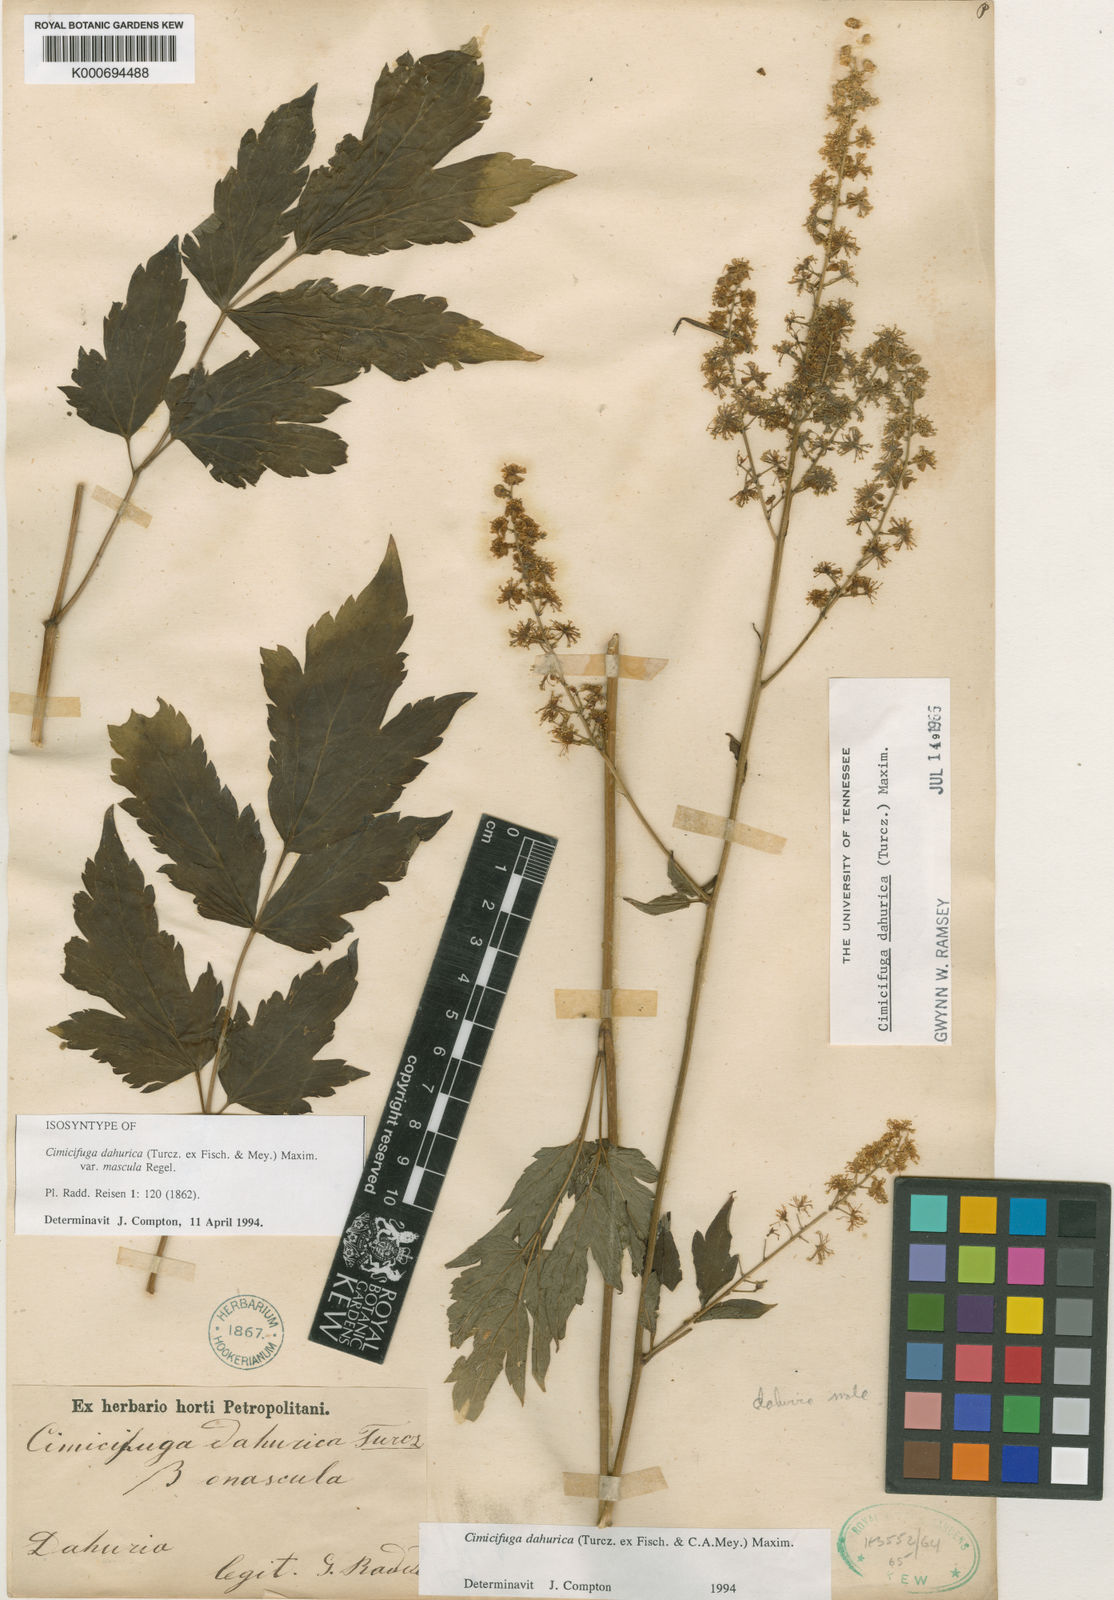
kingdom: Plantae
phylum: Tracheophyta
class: Magnoliopsida
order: Ranunculales
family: Ranunculaceae
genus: Actaea
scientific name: Actaea dahurica
